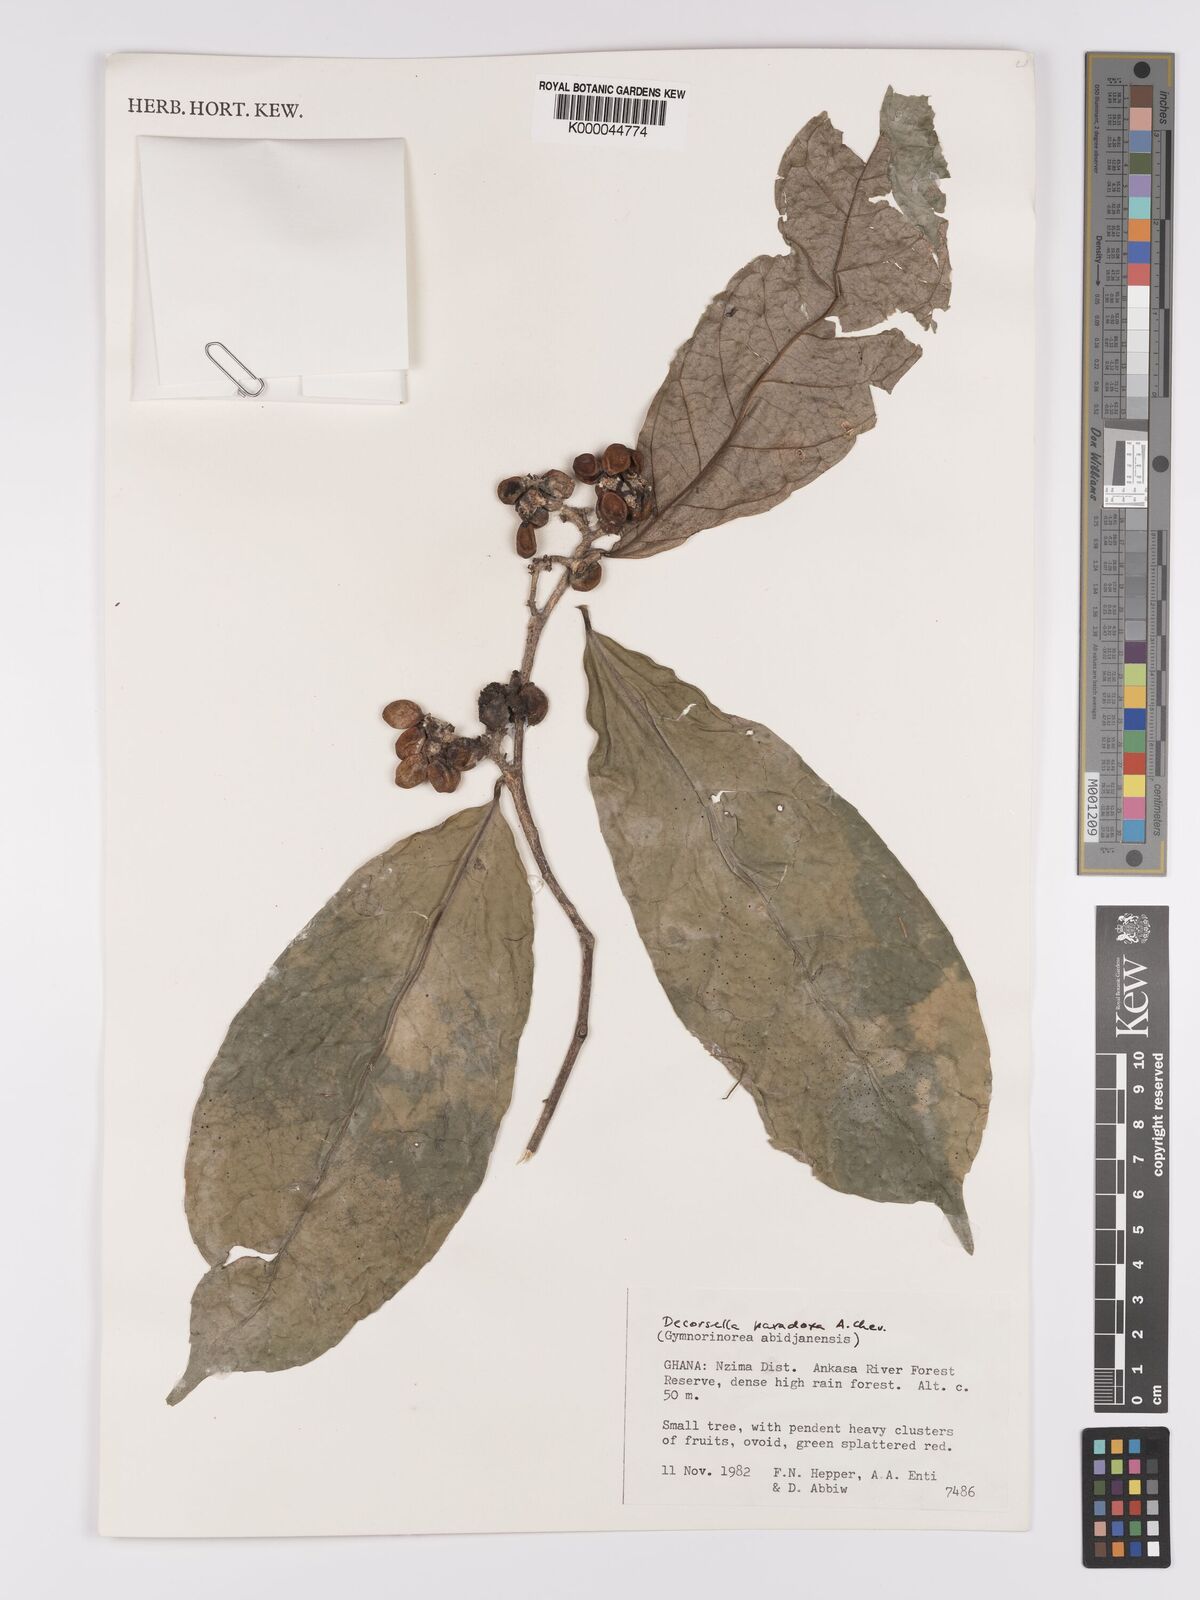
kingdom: Plantae
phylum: Tracheophyta
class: Magnoliopsida
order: Malpighiales
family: Violaceae
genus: Decorsella
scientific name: Decorsella paradoxa
